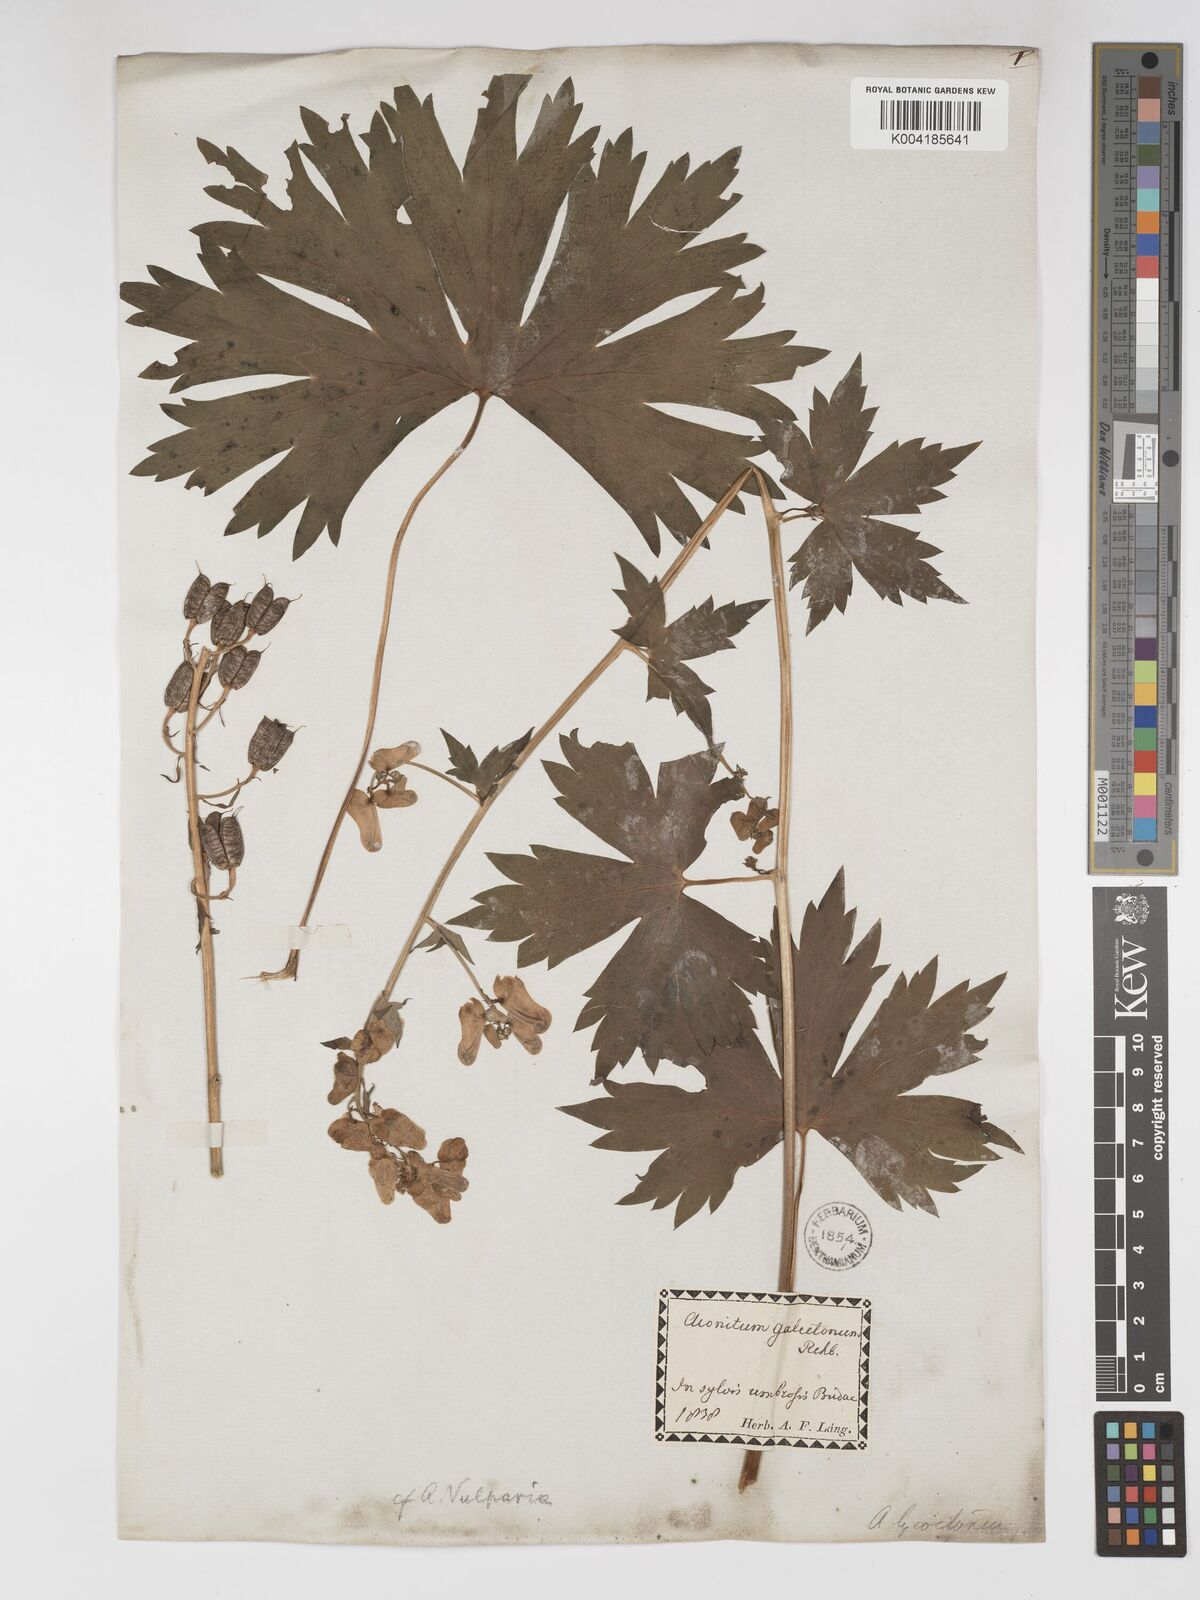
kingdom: Plantae
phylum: Tracheophyta
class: Magnoliopsida
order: Ranunculales
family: Ranunculaceae
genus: Aconitum
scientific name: Aconitum lycoctonum
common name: Wolf's-bane
